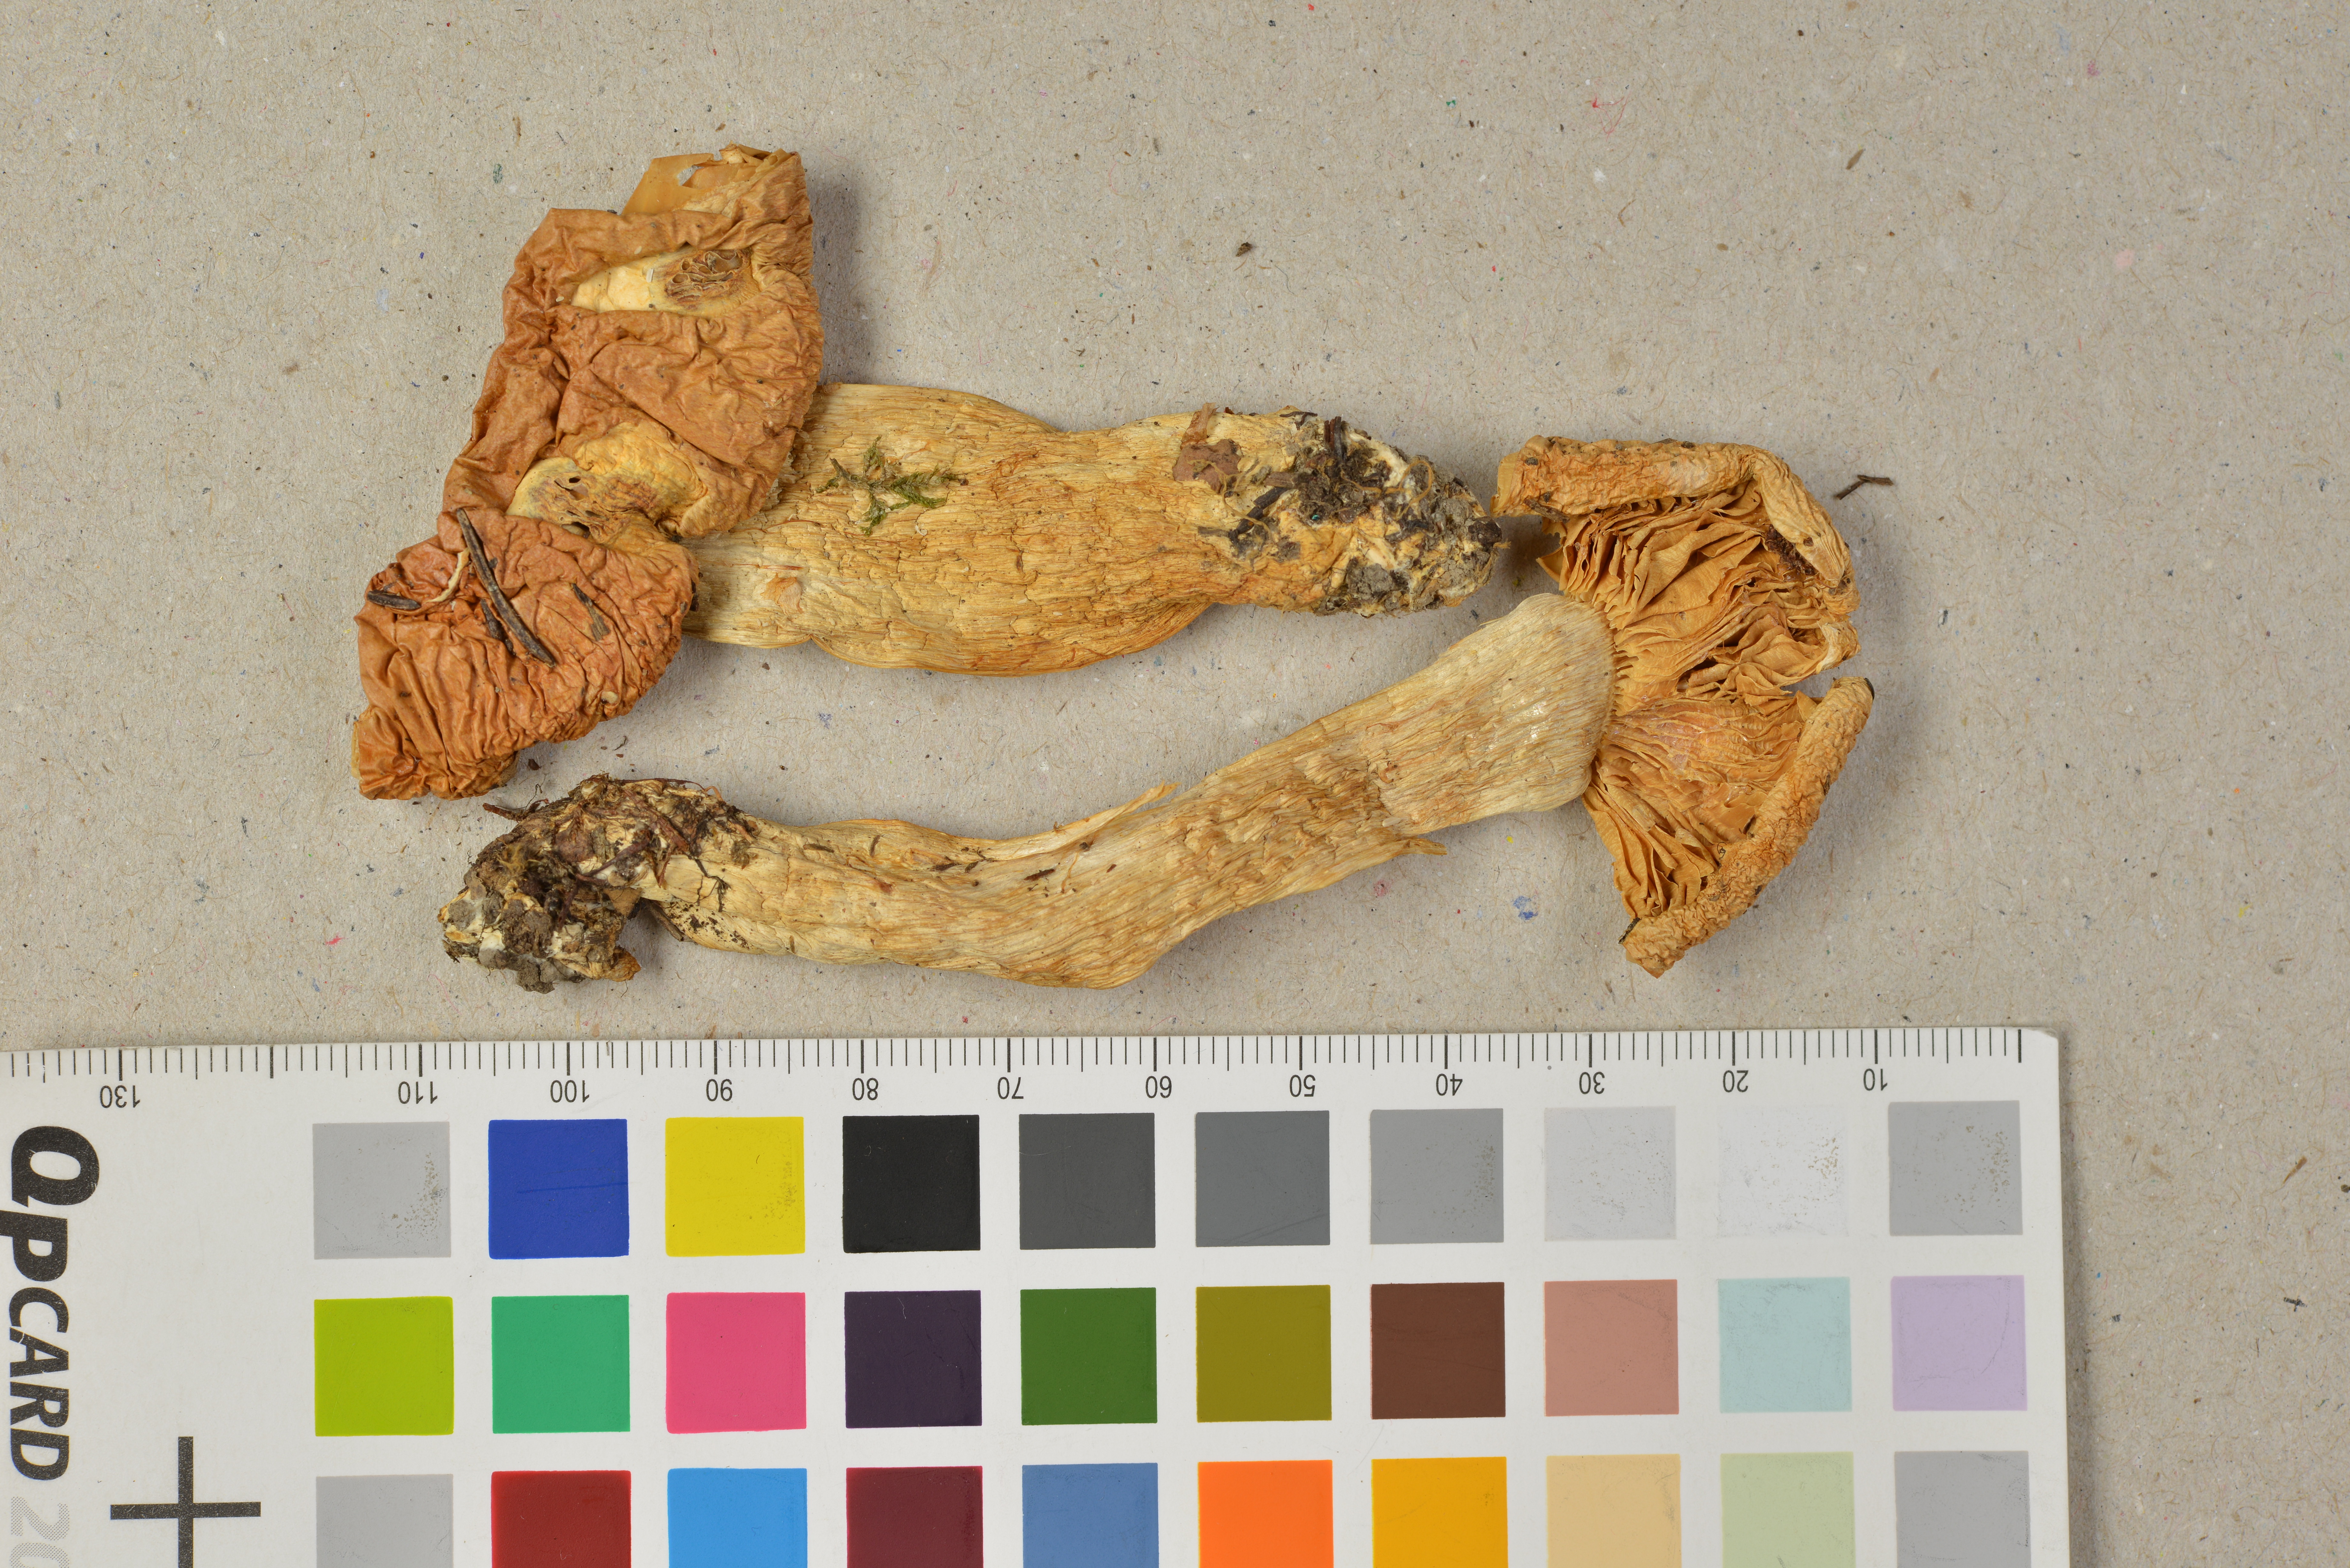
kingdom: Fungi
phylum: Basidiomycota
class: Agaricomycetes
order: Agaricales
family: Cortinariaceae
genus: Phlegmacium
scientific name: Phlegmacium pini
